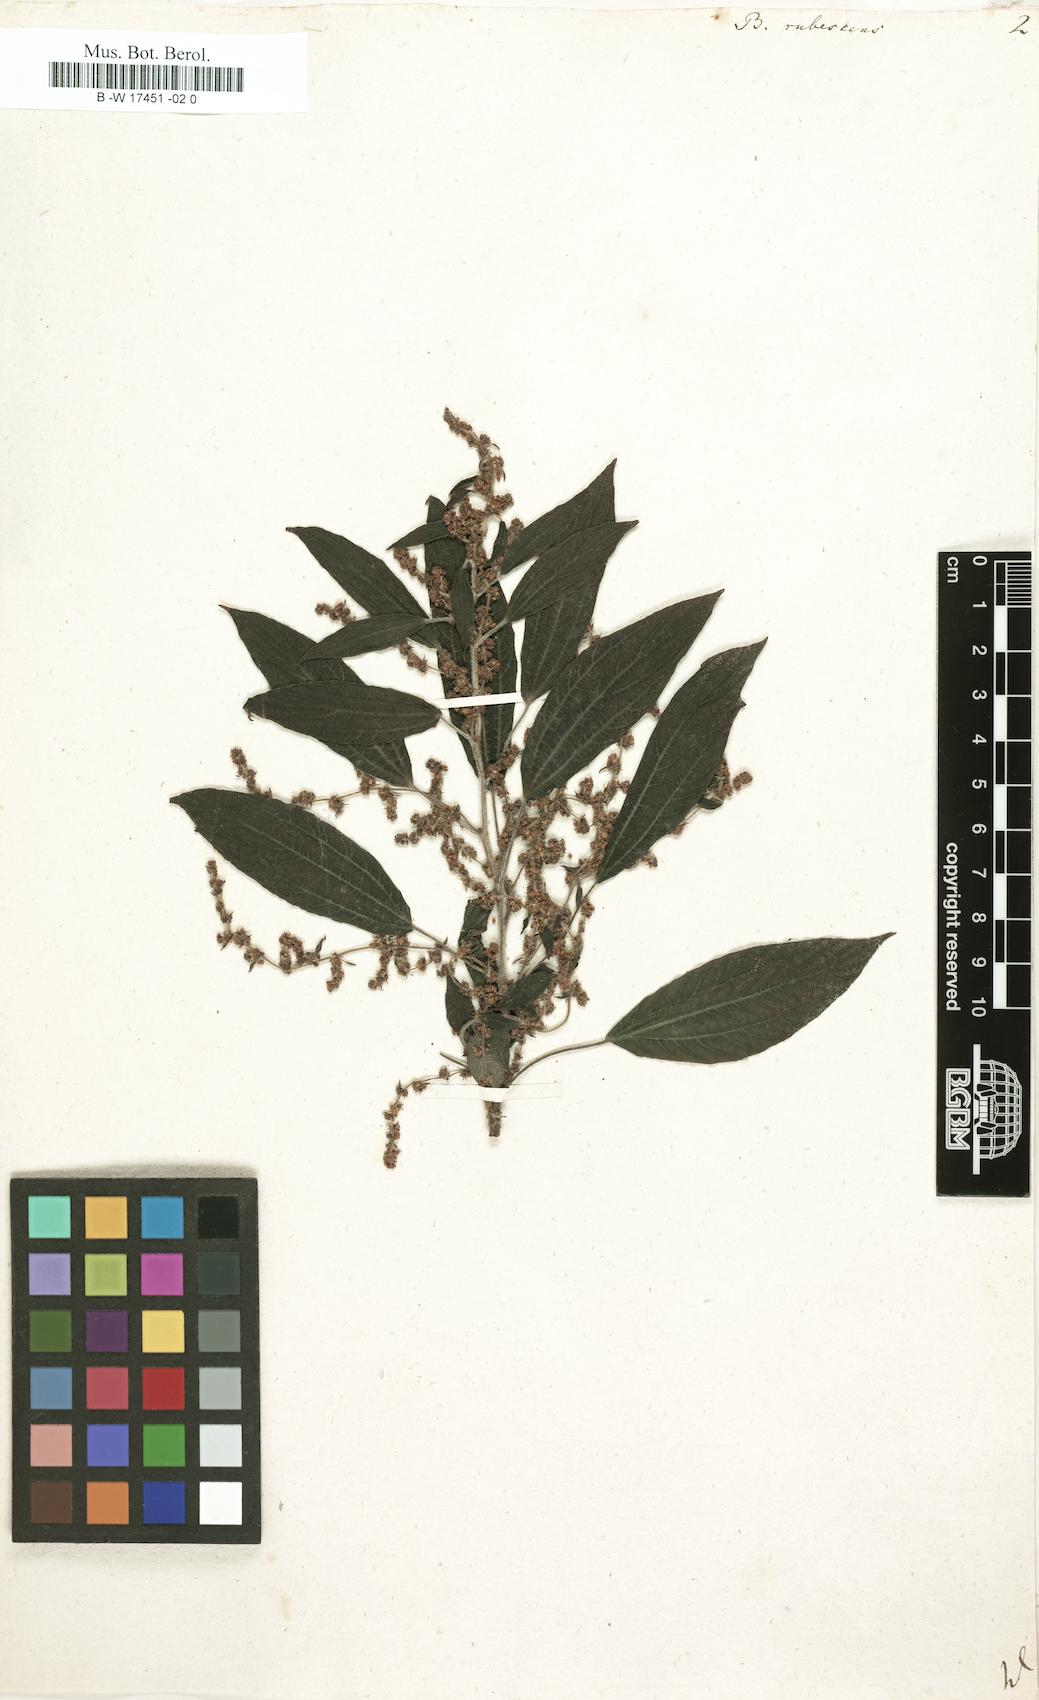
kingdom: Plantae
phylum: Tracheophyta
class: Magnoliopsida
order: Rosales
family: Urticaceae
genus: Gesnouinia
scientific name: Gesnouinia arborea
